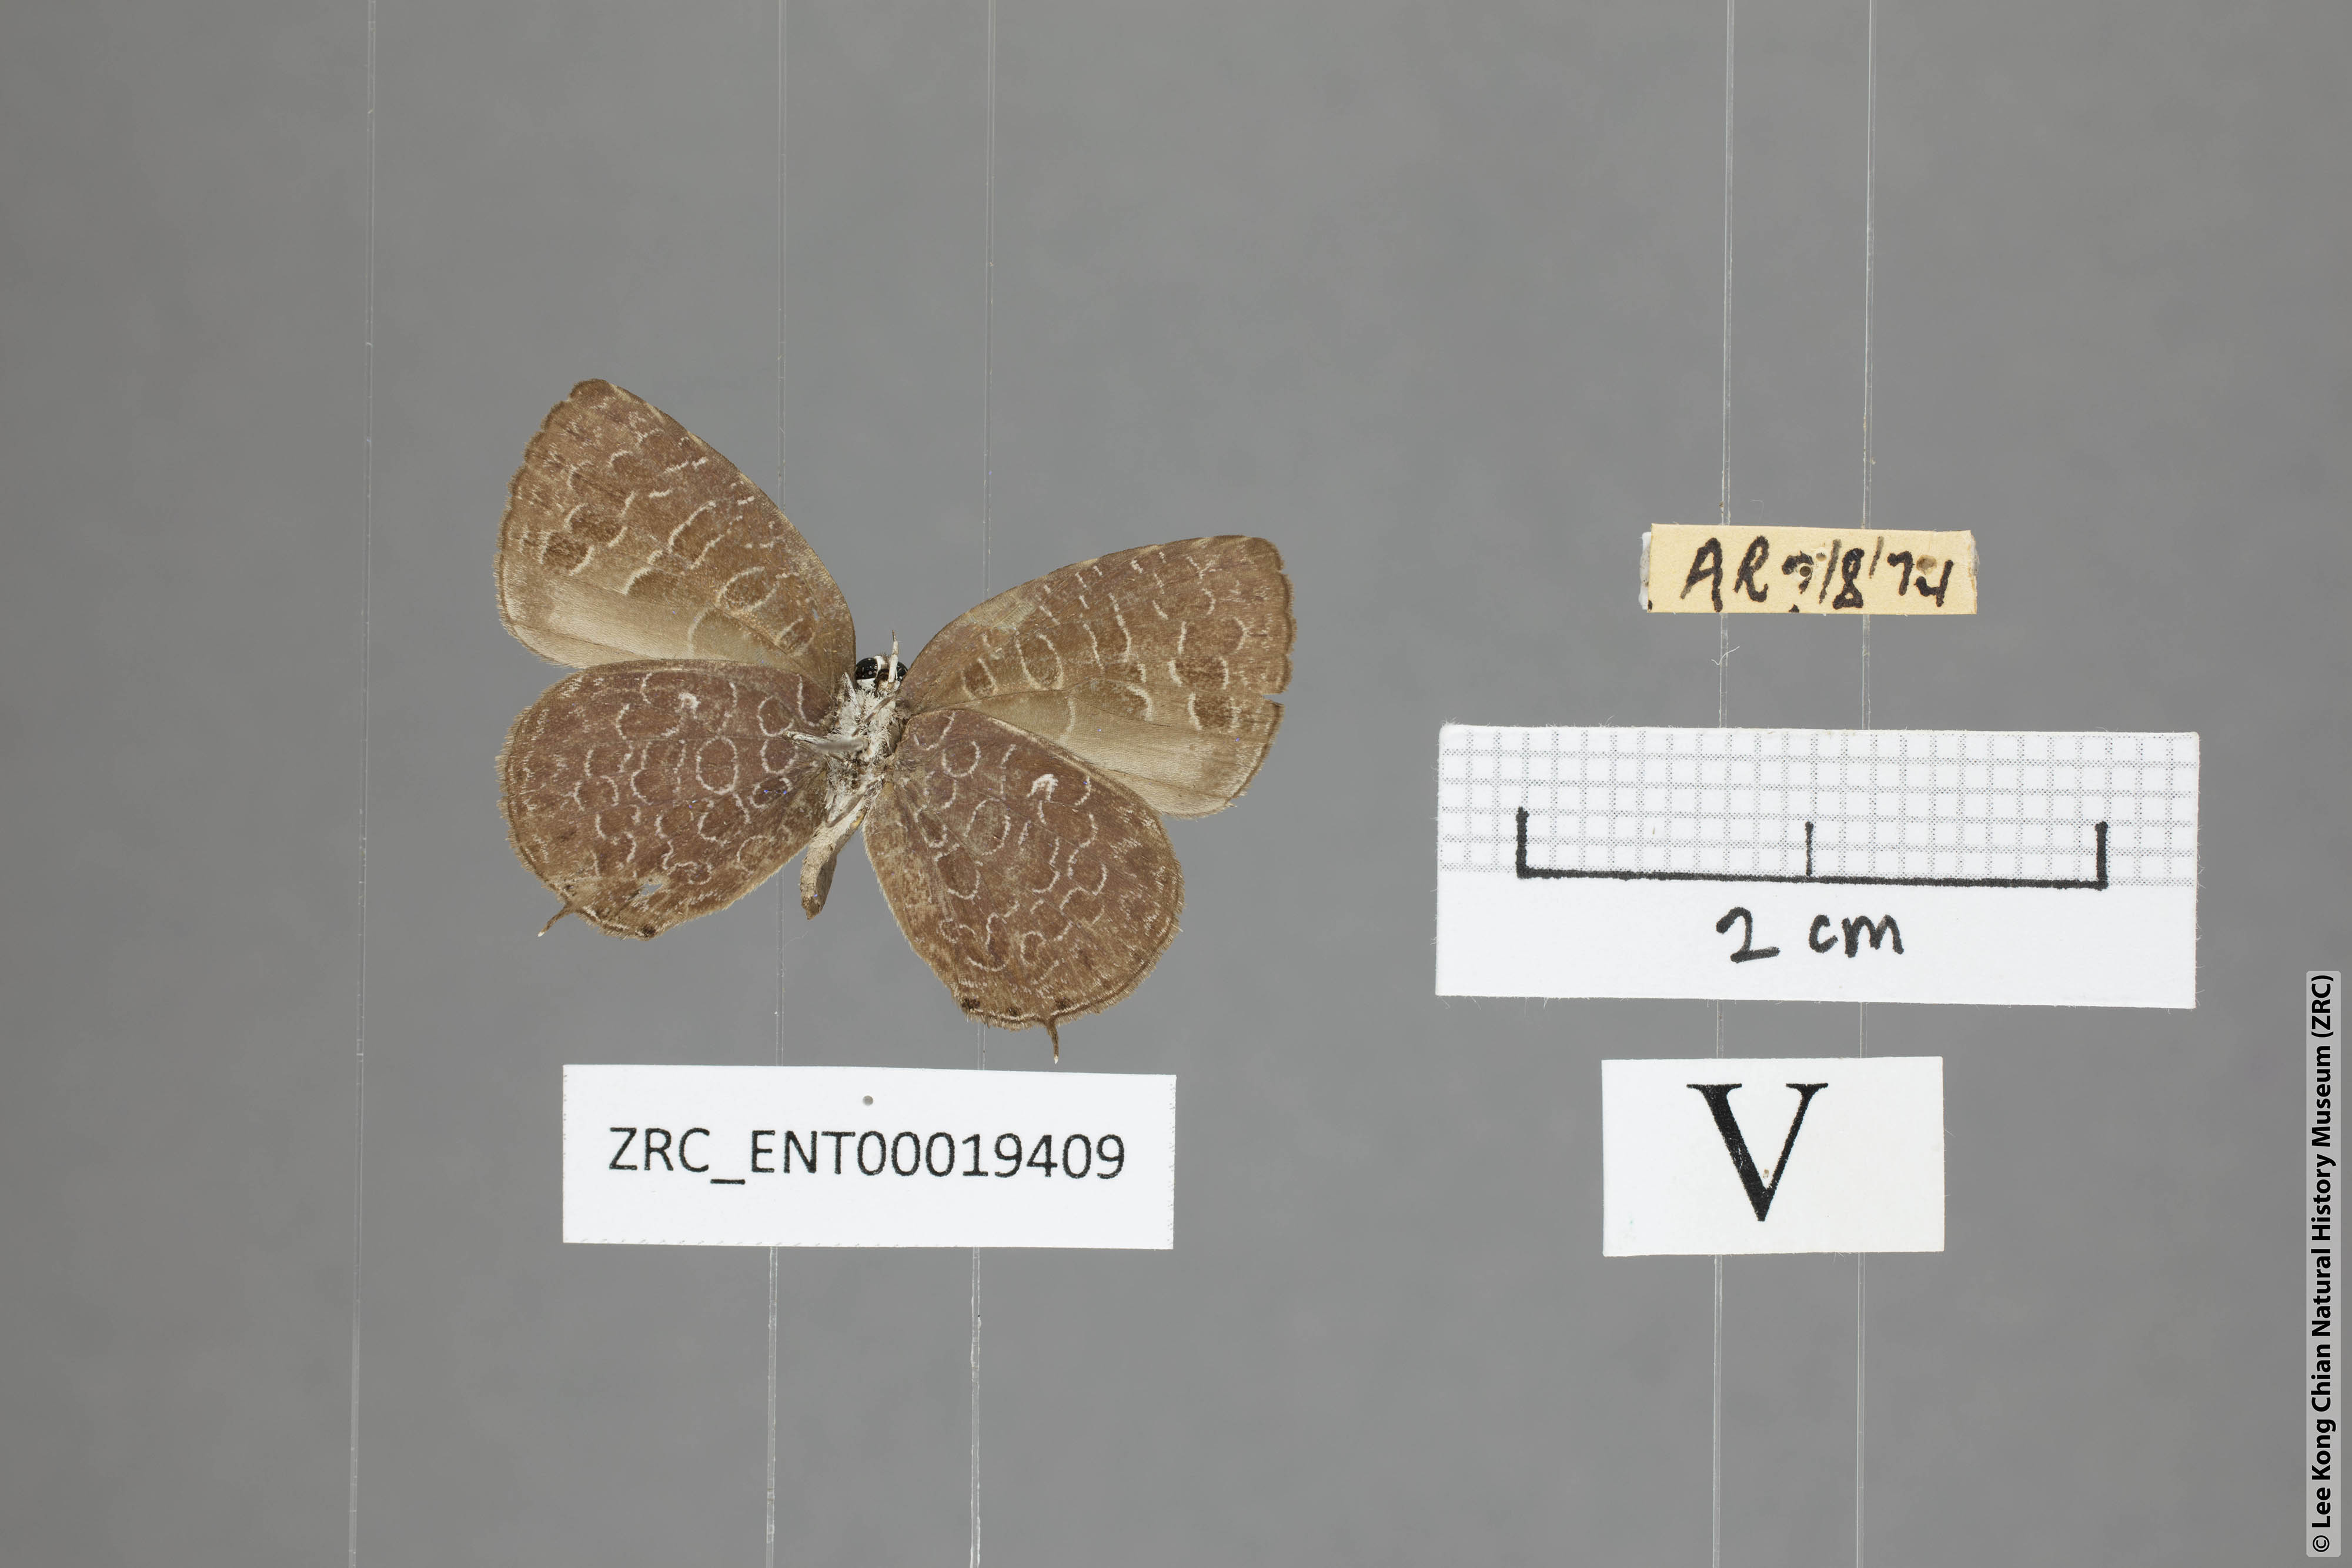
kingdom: Animalia
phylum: Arthropoda
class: Insecta
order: Lepidoptera
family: Lycaenidae
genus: Arhopala
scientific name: Arhopala elizabethae
